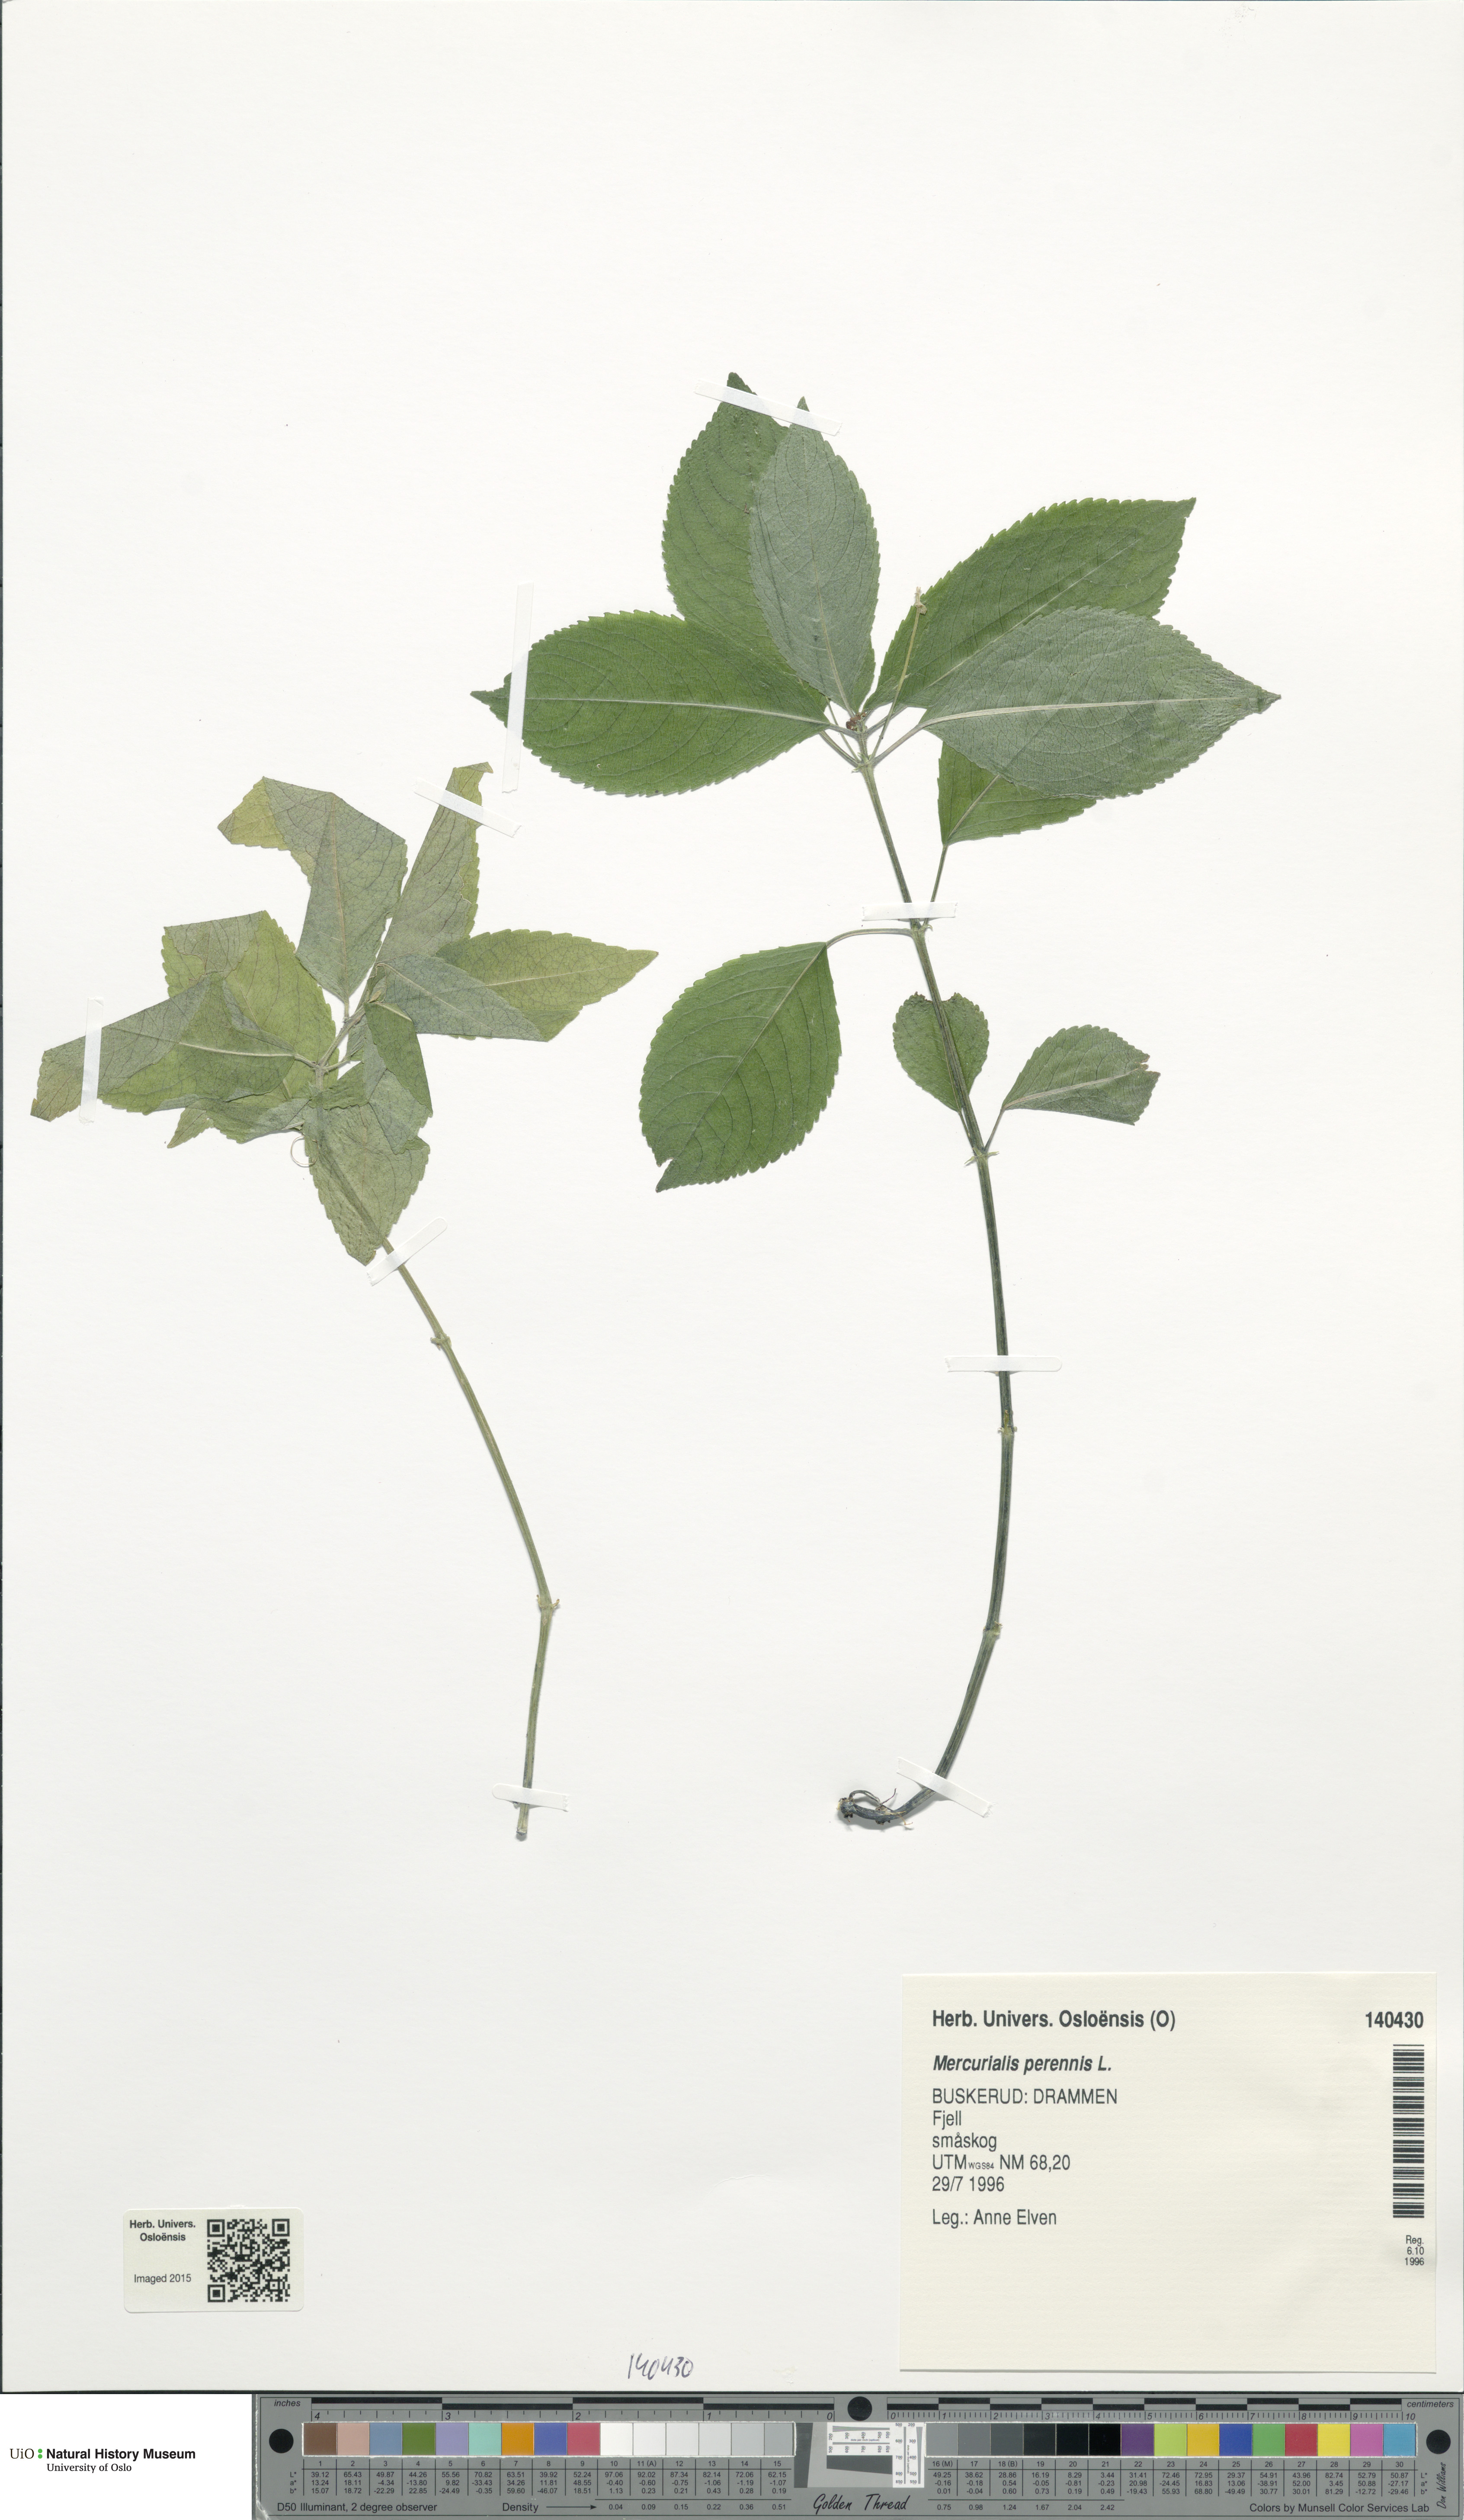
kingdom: Plantae
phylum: Tracheophyta
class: Magnoliopsida
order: Malpighiales
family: Euphorbiaceae
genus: Mercurialis
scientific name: Mercurialis perennis
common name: Dog mercury
